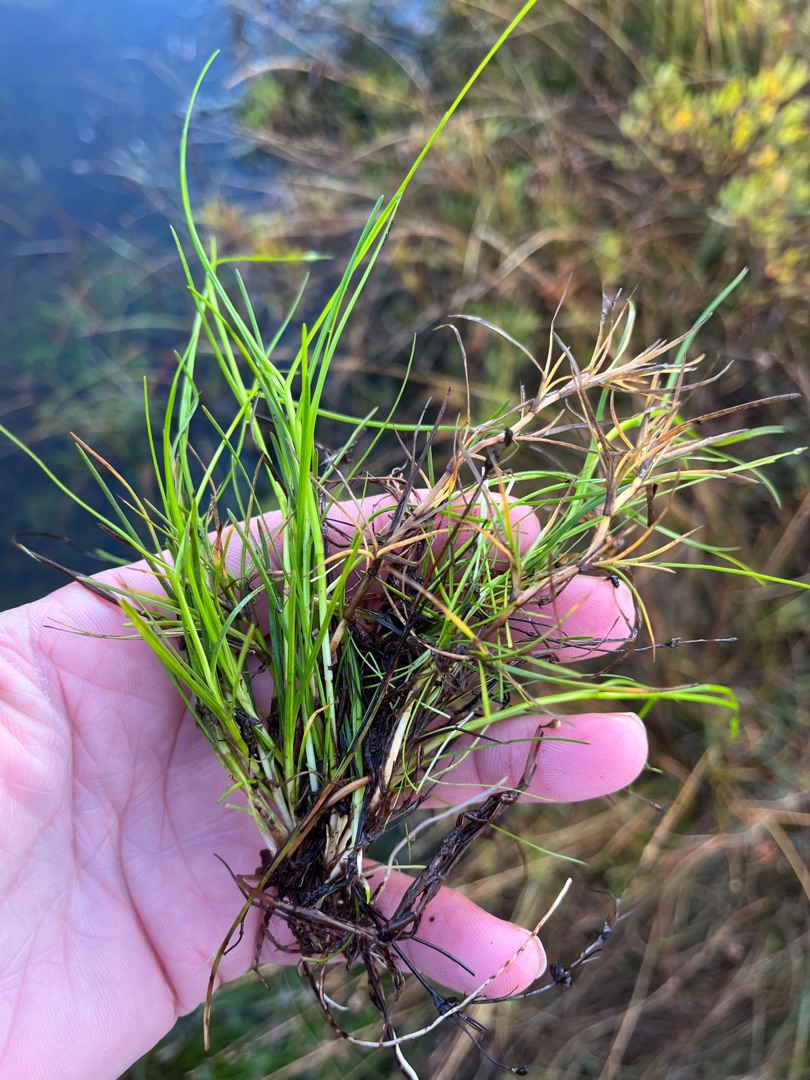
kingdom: Plantae
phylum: Tracheophyta
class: Liliopsida
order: Poales
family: Cyperaceae
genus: Isolepis
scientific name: Isolepis fluitans
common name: Flydende kogleaks
